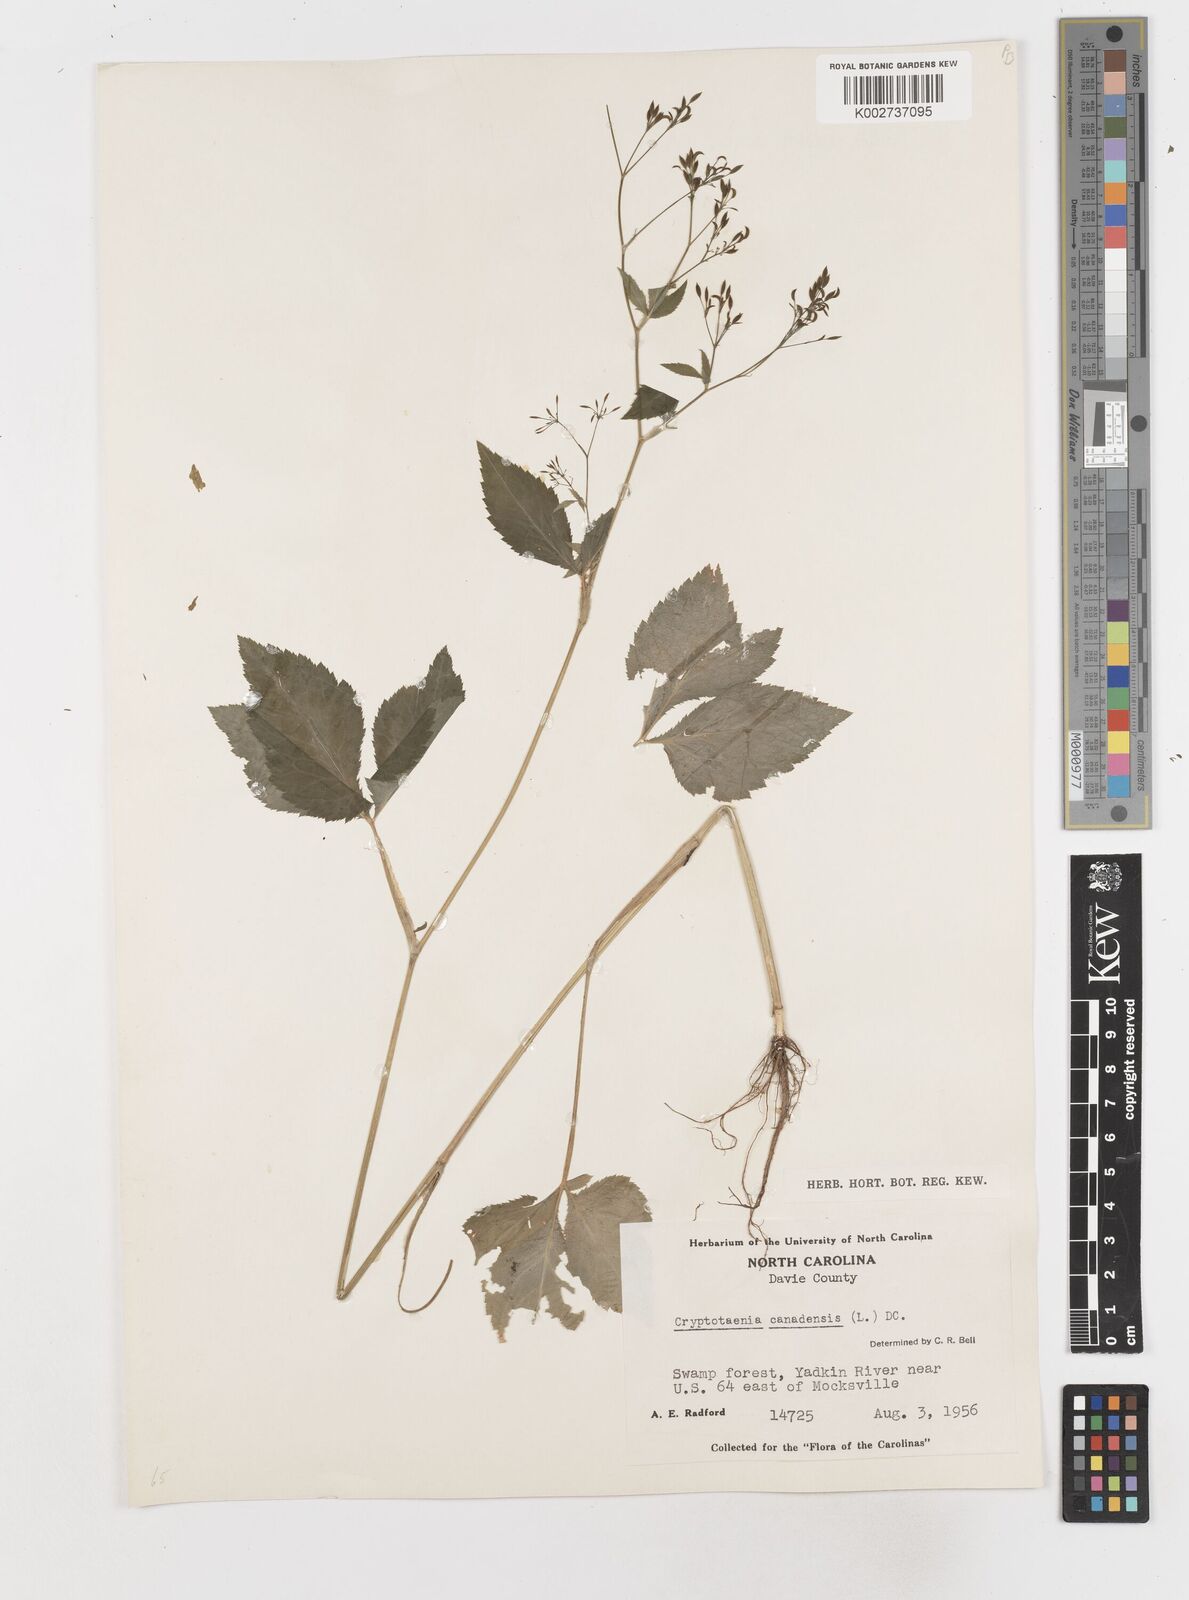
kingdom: Plantae
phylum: Tracheophyta
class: Magnoliopsida
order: Apiales
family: Apiaceae
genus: Cryptotaenia
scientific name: Cryptotaenia canadensis
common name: Honewort
